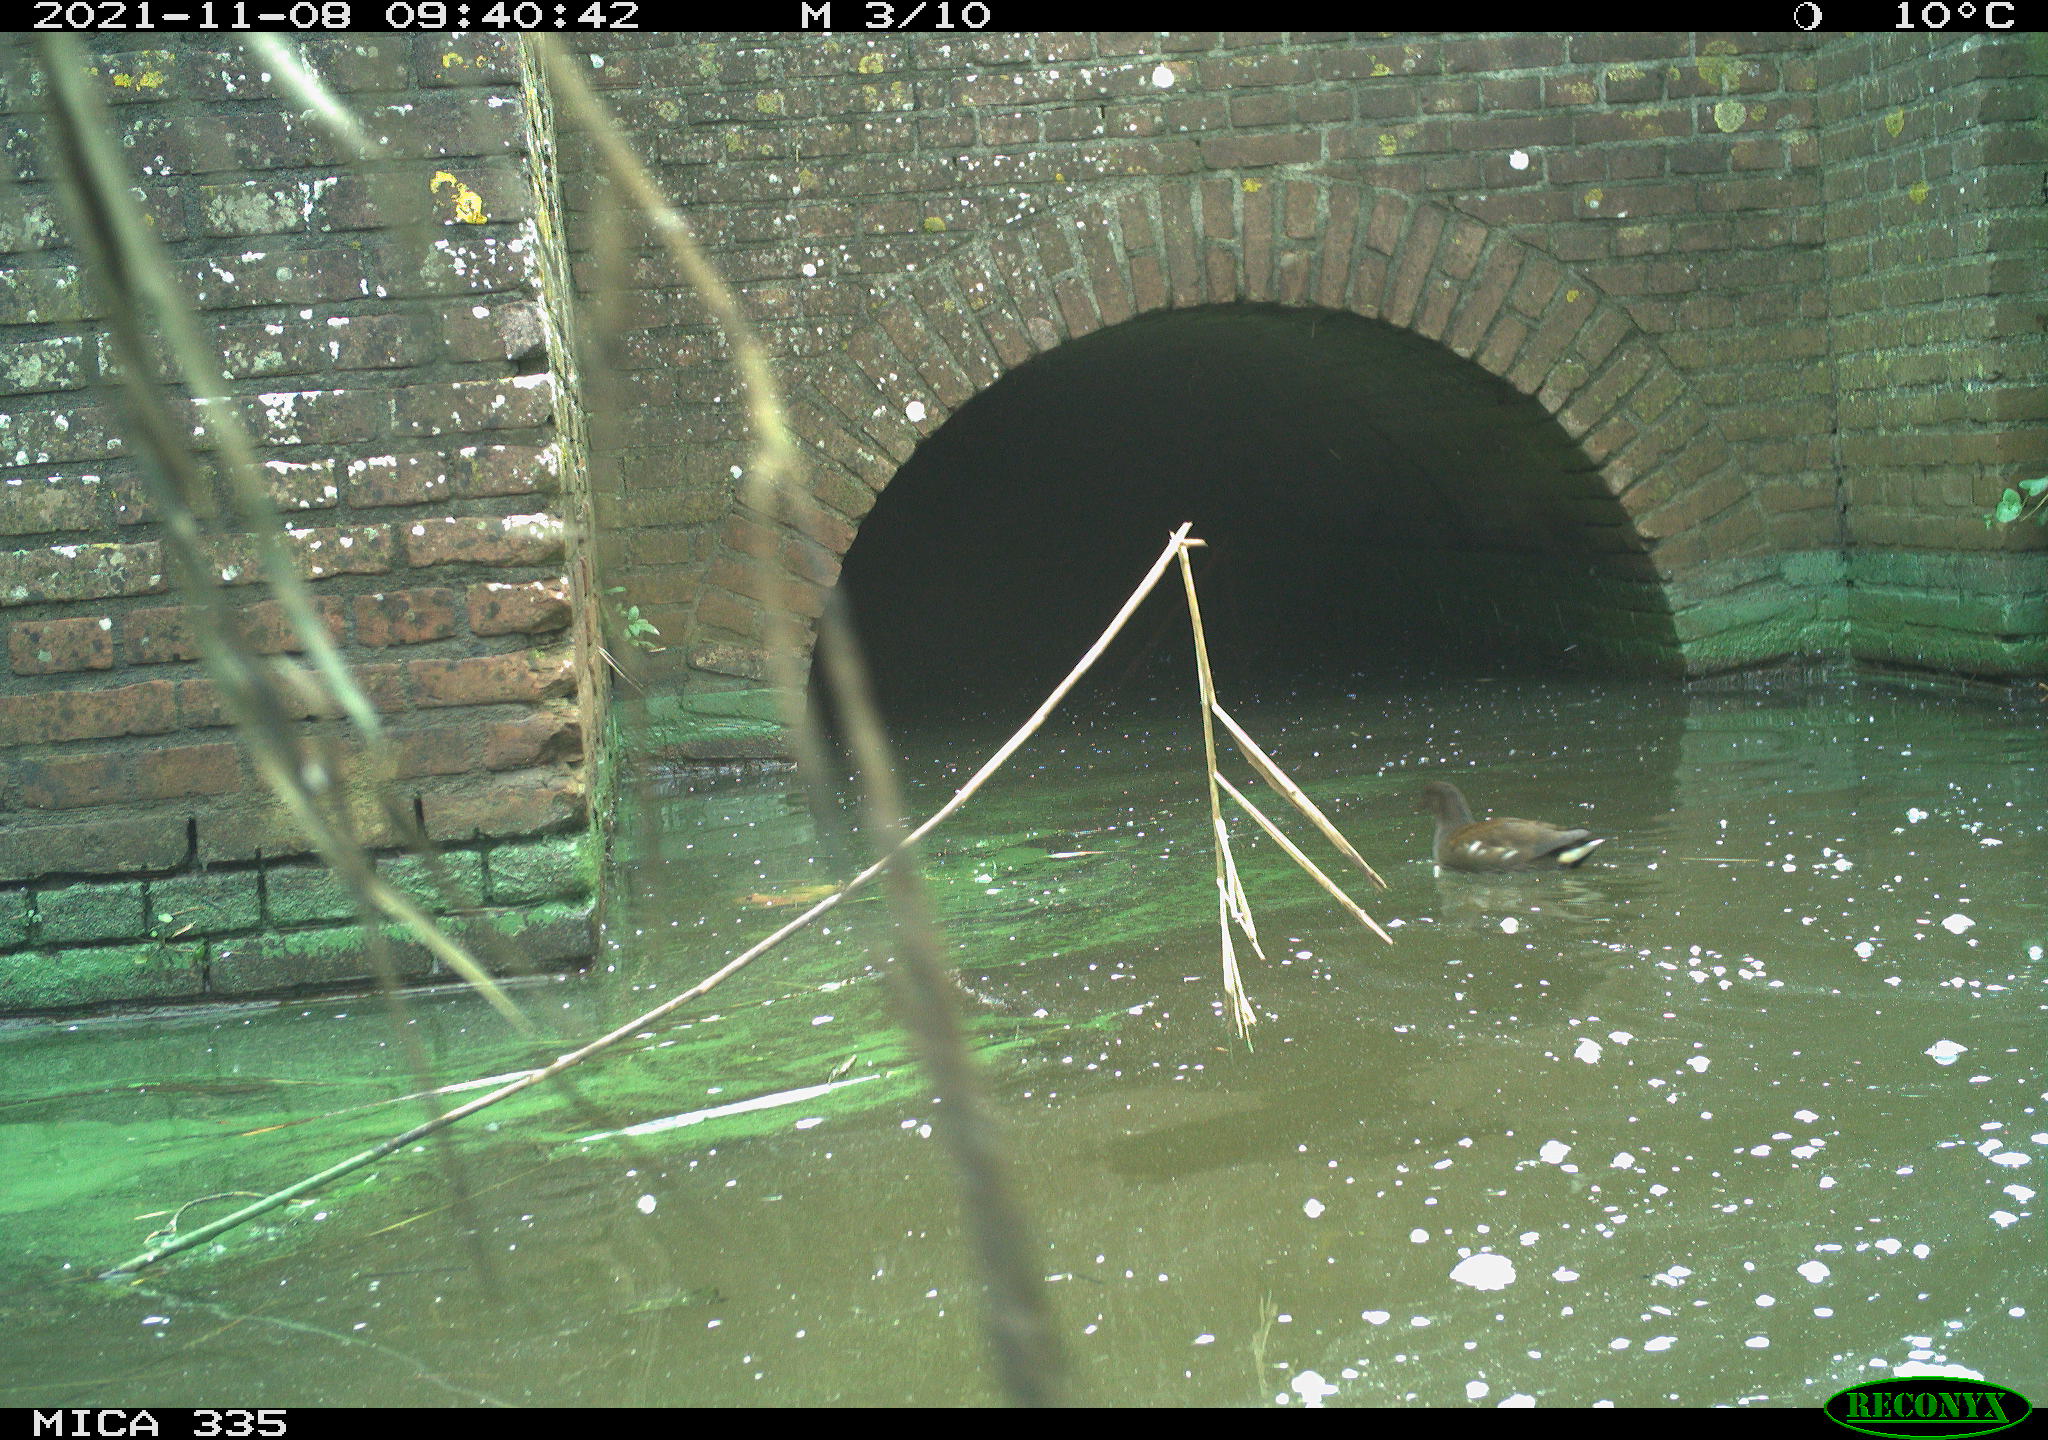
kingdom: Animalia
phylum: Chordata
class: Aves
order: Gruiformes
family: Rallidae
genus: Gallinula
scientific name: Gallinula chloropus
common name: Common moorhen
